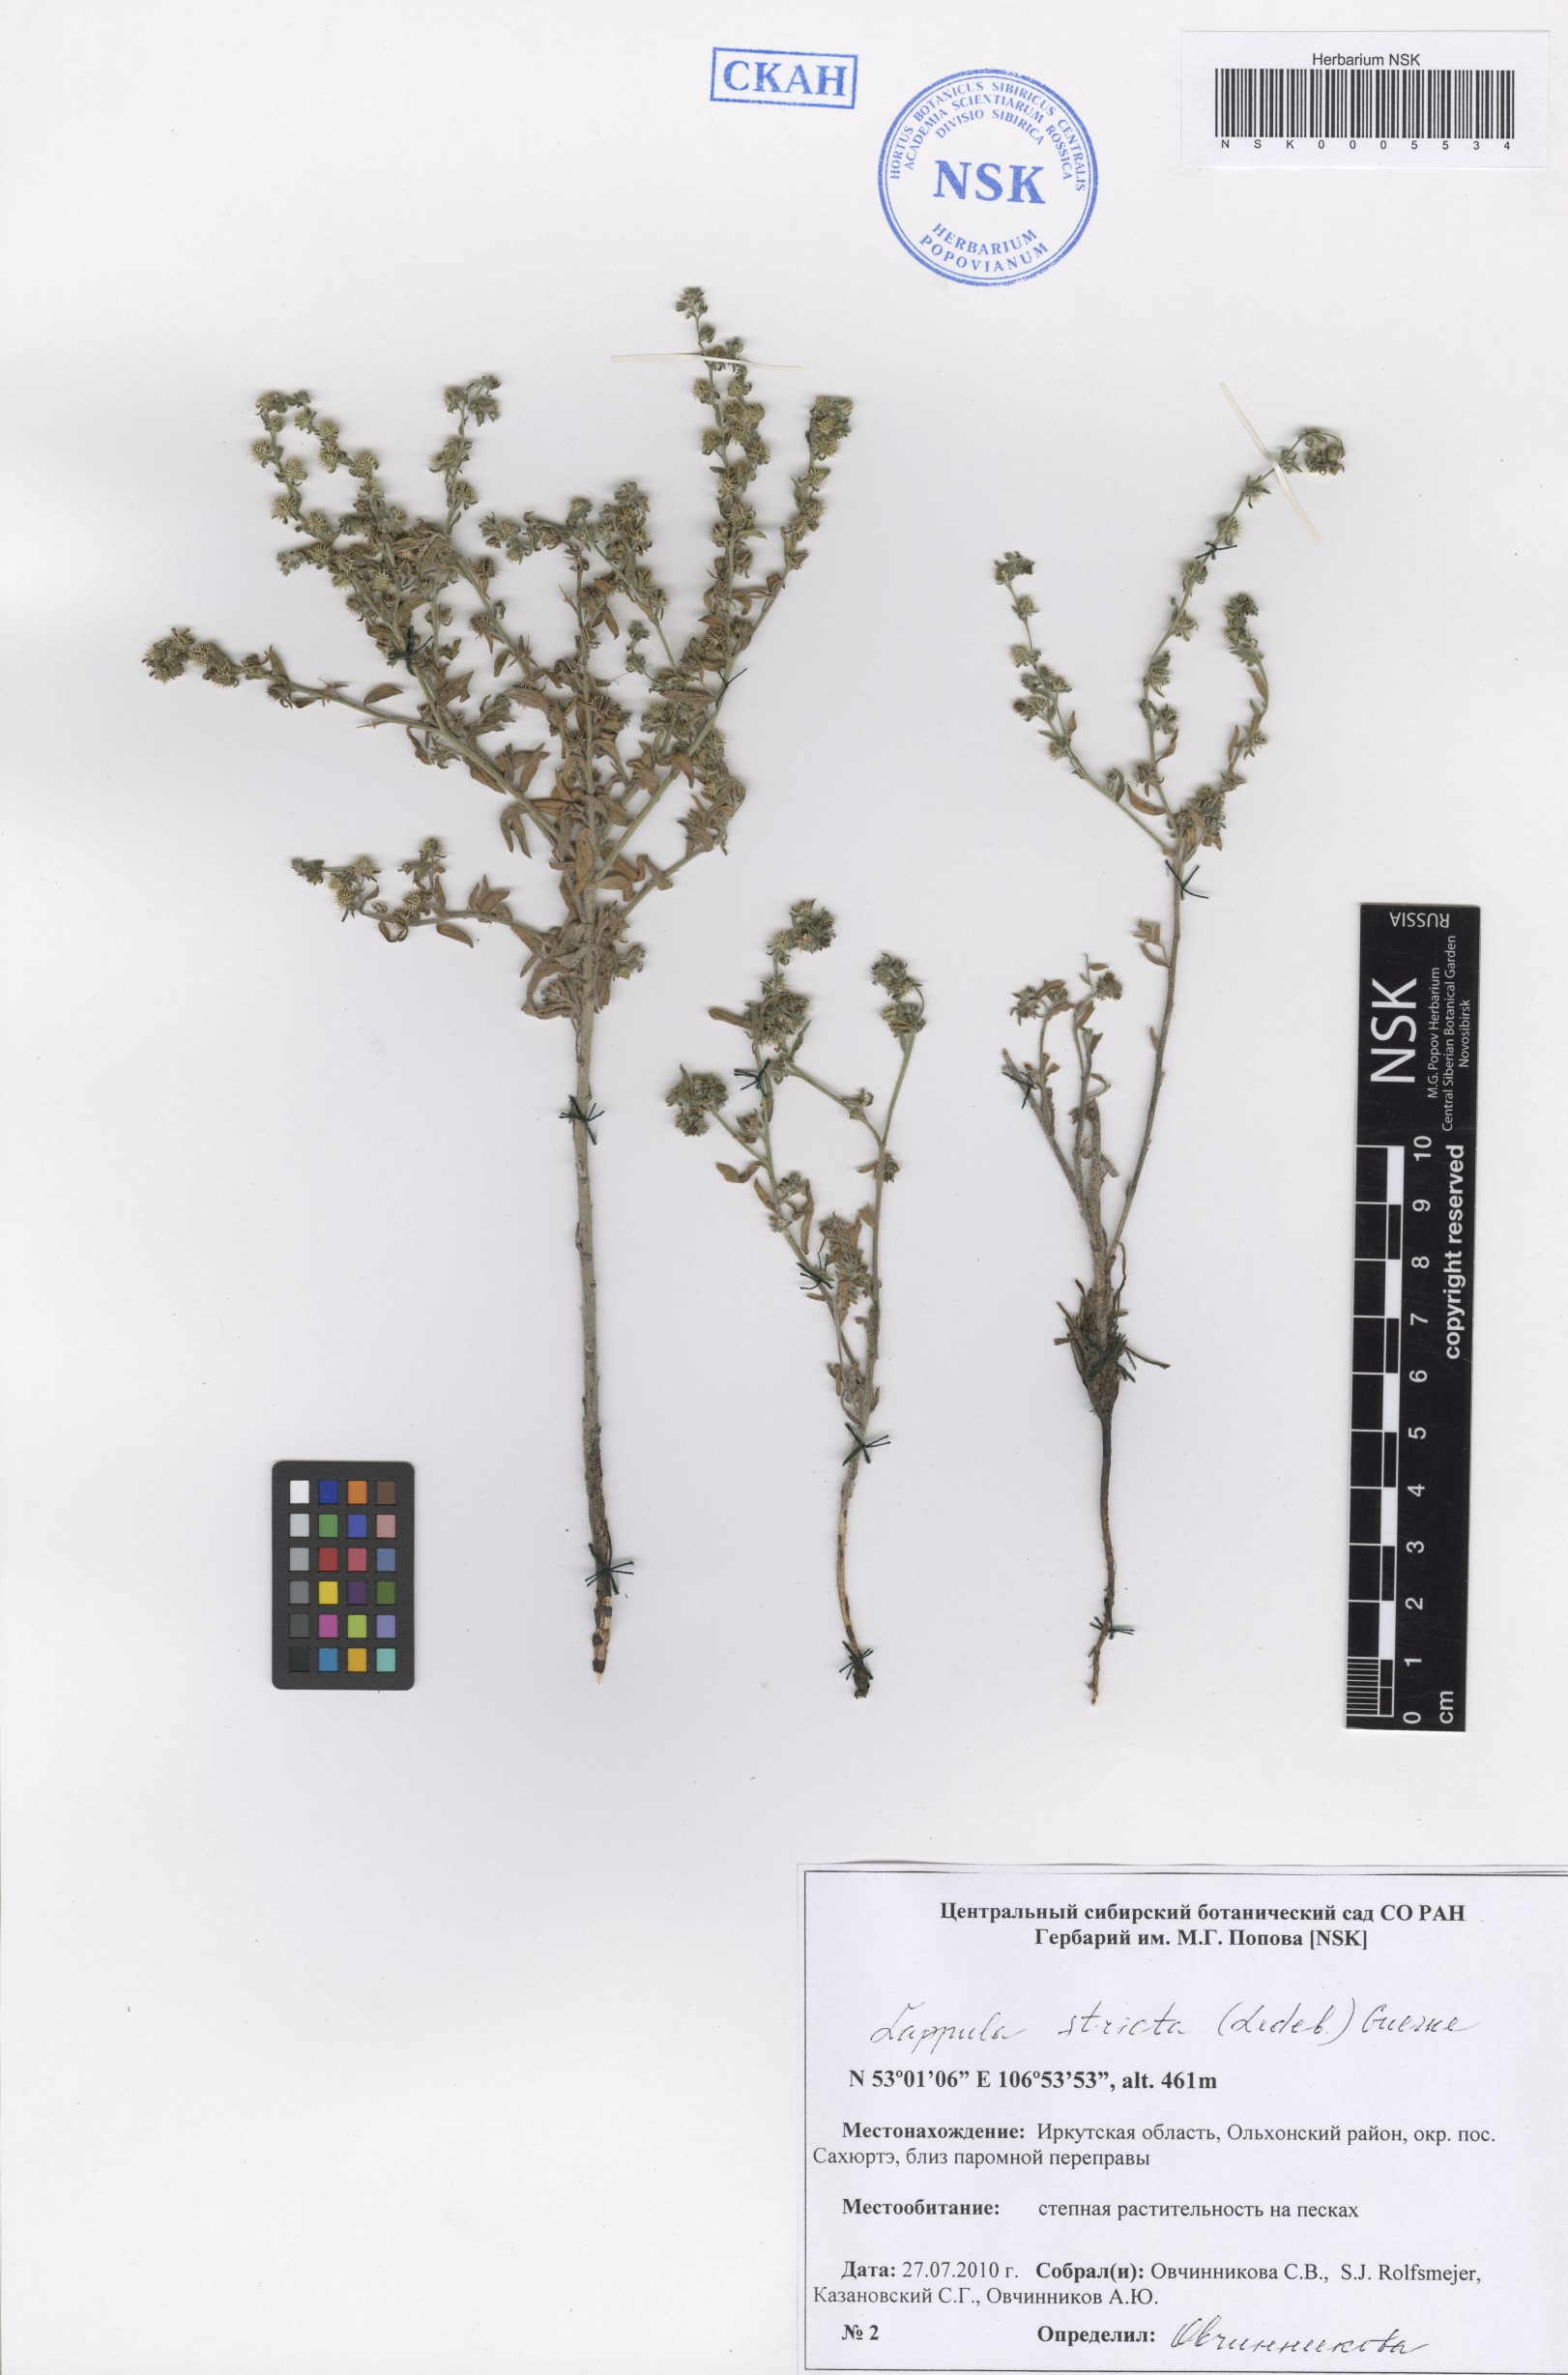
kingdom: Plantae
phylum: Tracheophyta
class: Magnoliopsida
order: Boraginales
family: Boraginaceae
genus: Lappula
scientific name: Lappula stricta
